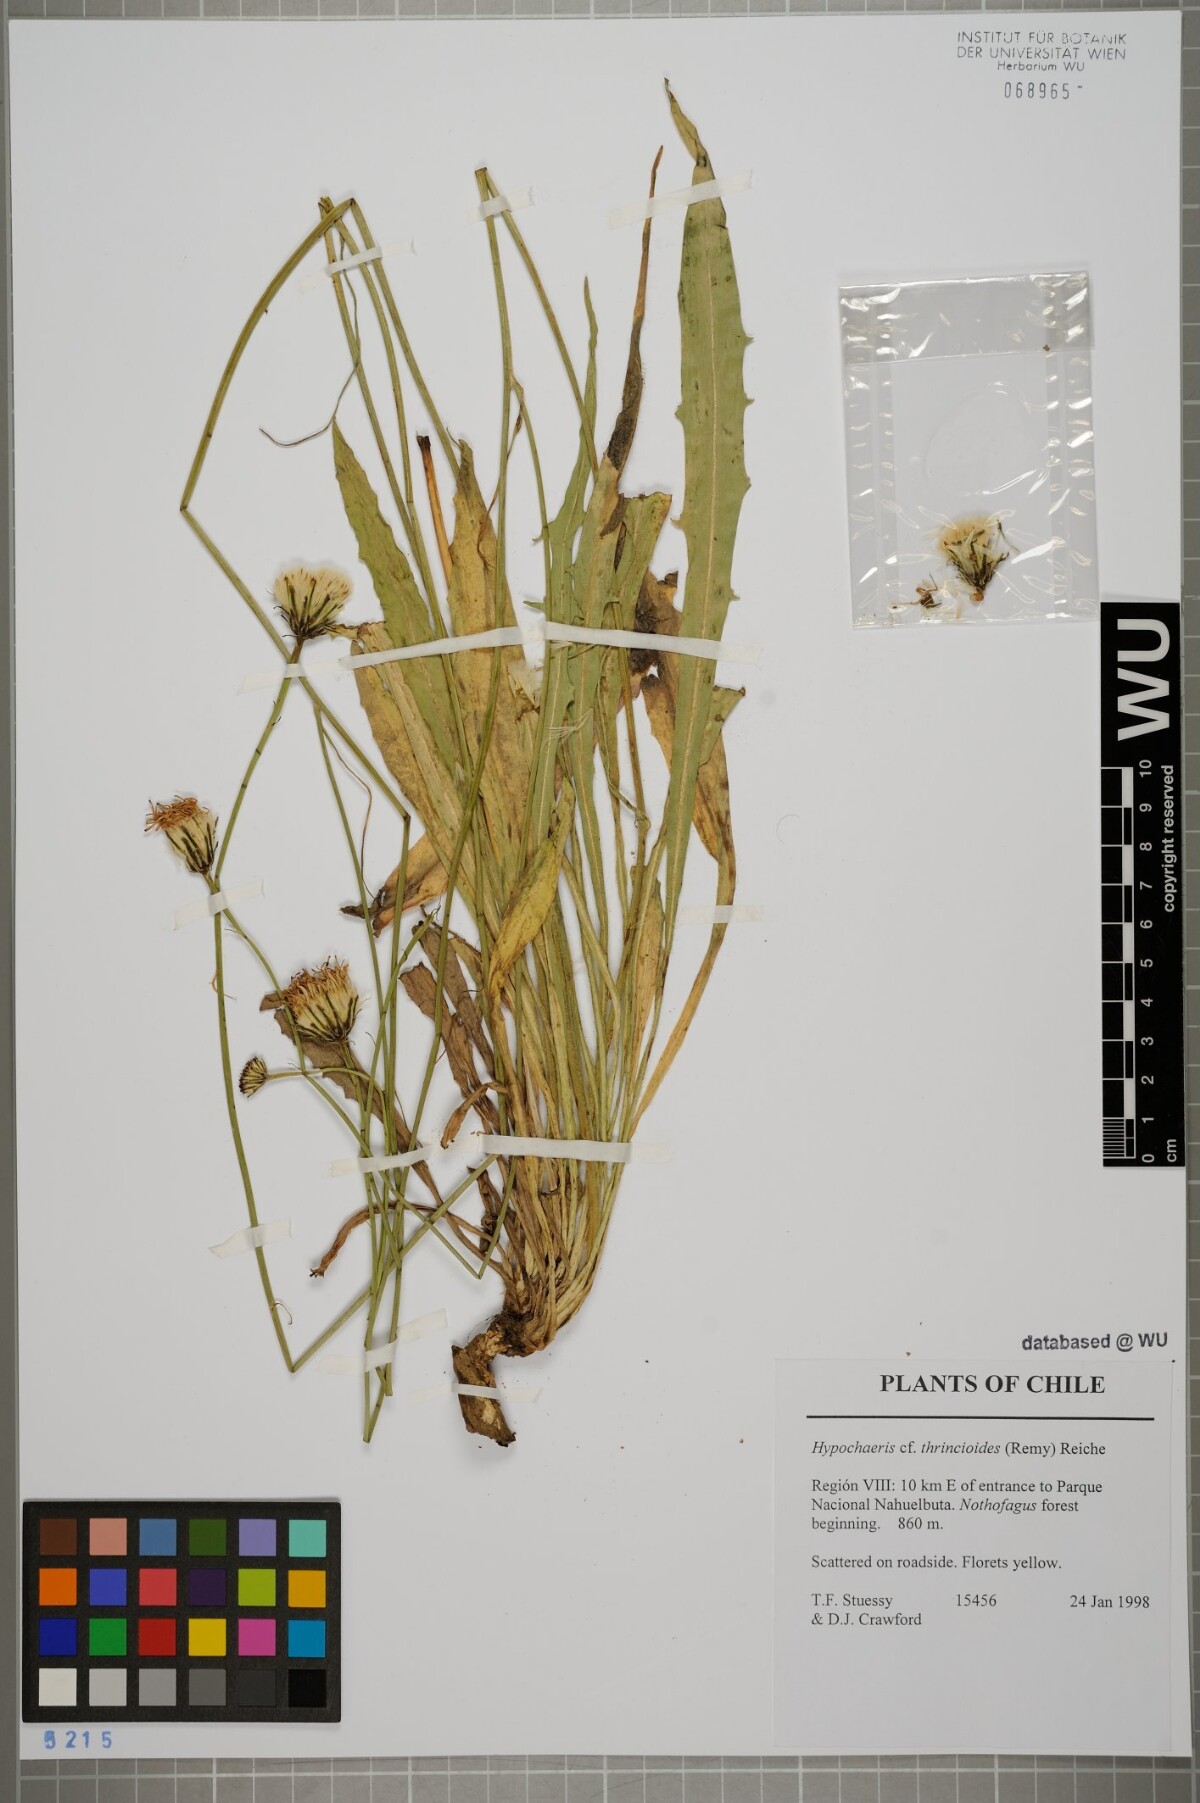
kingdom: Plantae
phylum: Tracheophyta
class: Magnoliopsida
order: Asterales
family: Asteraceae
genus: Hypochaeris
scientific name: Hypochaeris apargioides
